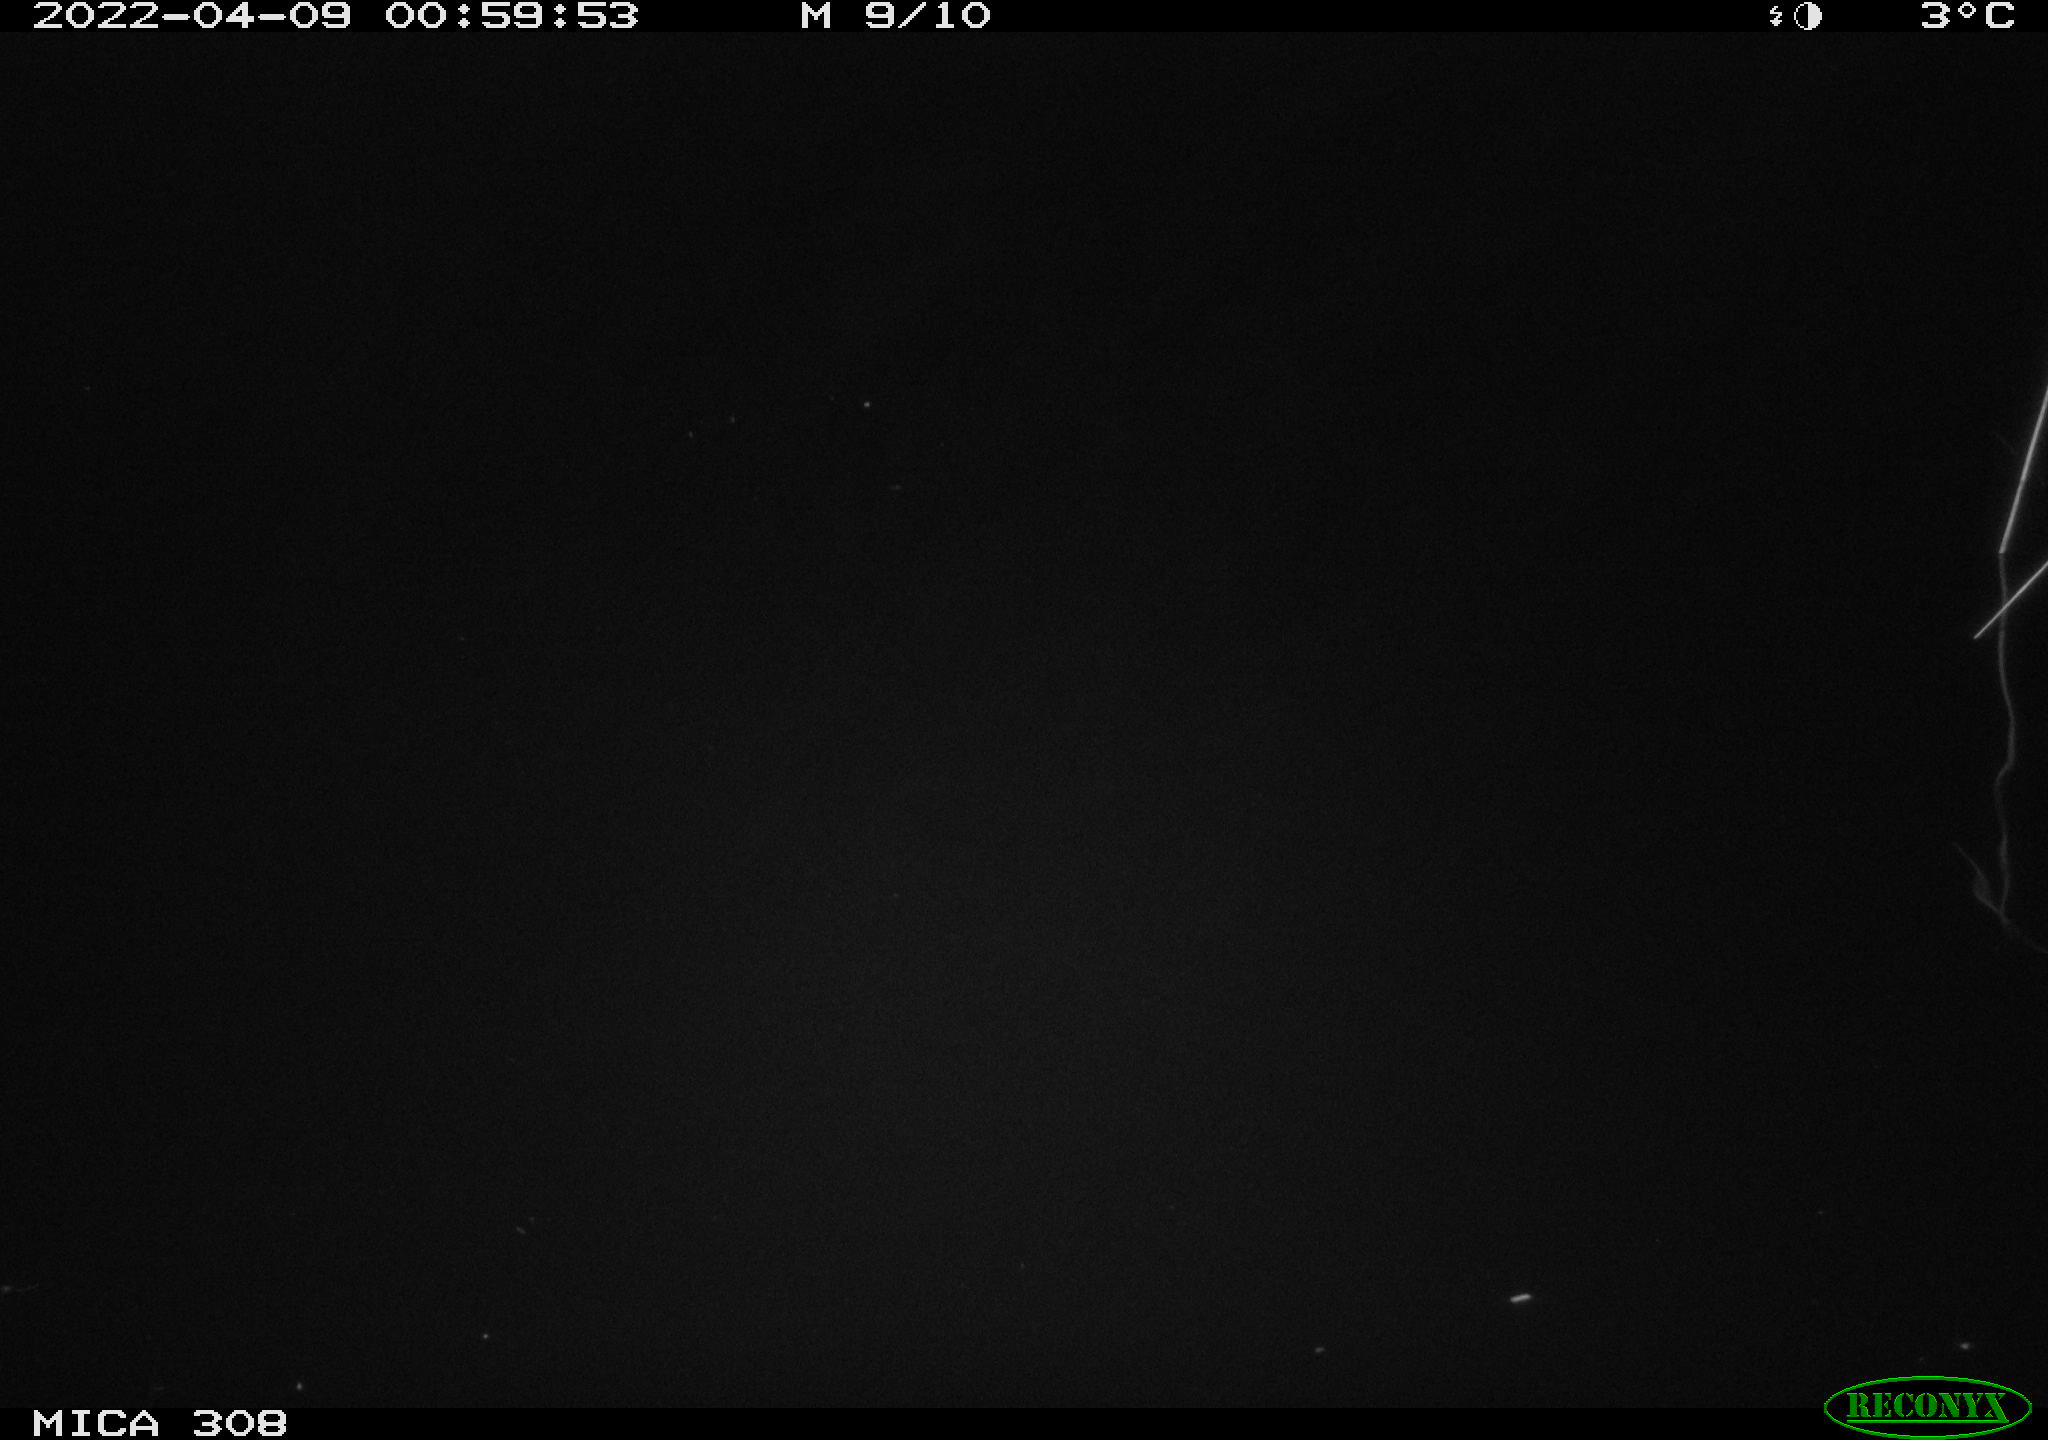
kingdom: Animalia
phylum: Chordata
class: Mammalia
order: Rodentia
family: Cricetidae
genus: Ondatra
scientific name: Ondatra zibethicus
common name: Muskrat
